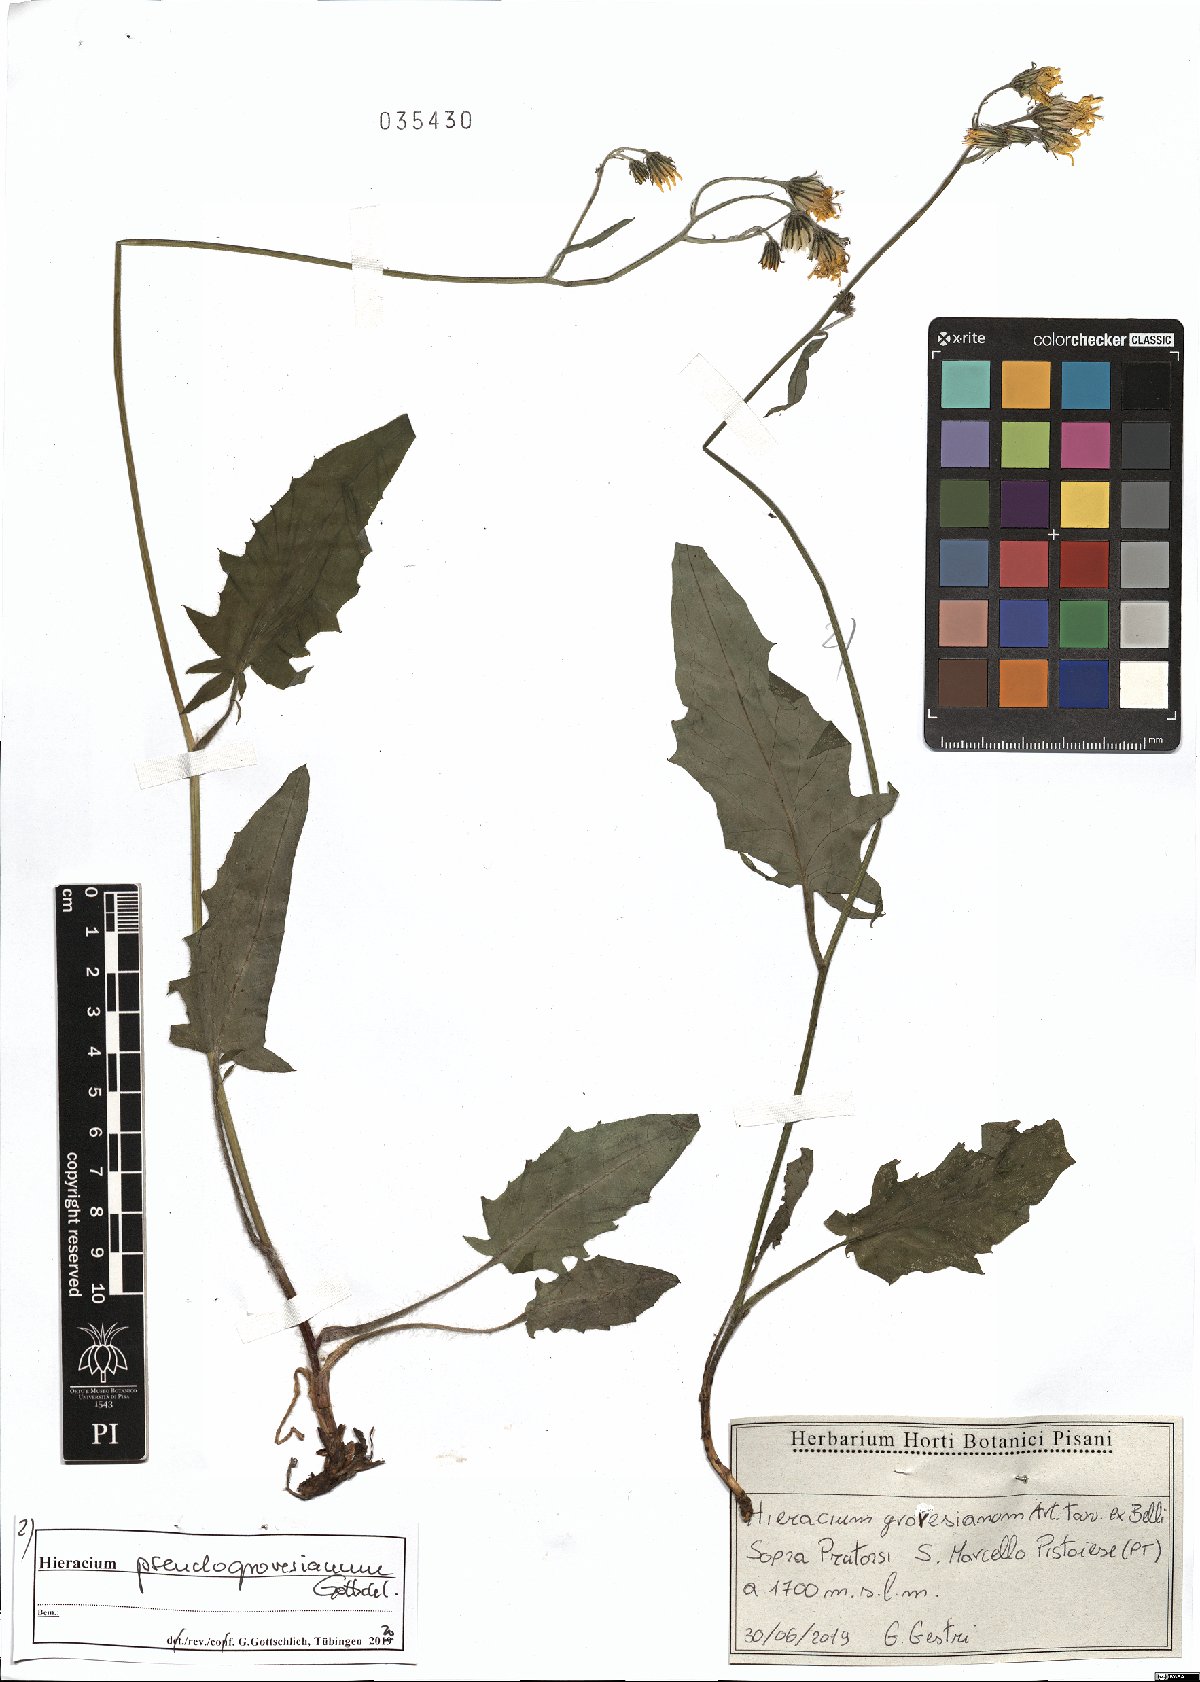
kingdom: Plantae
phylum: Tracheophyta
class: Magnoliopsida
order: Asterales
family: Asteraceae
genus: Hieracium
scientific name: Hieracium pseudogrovesianum
